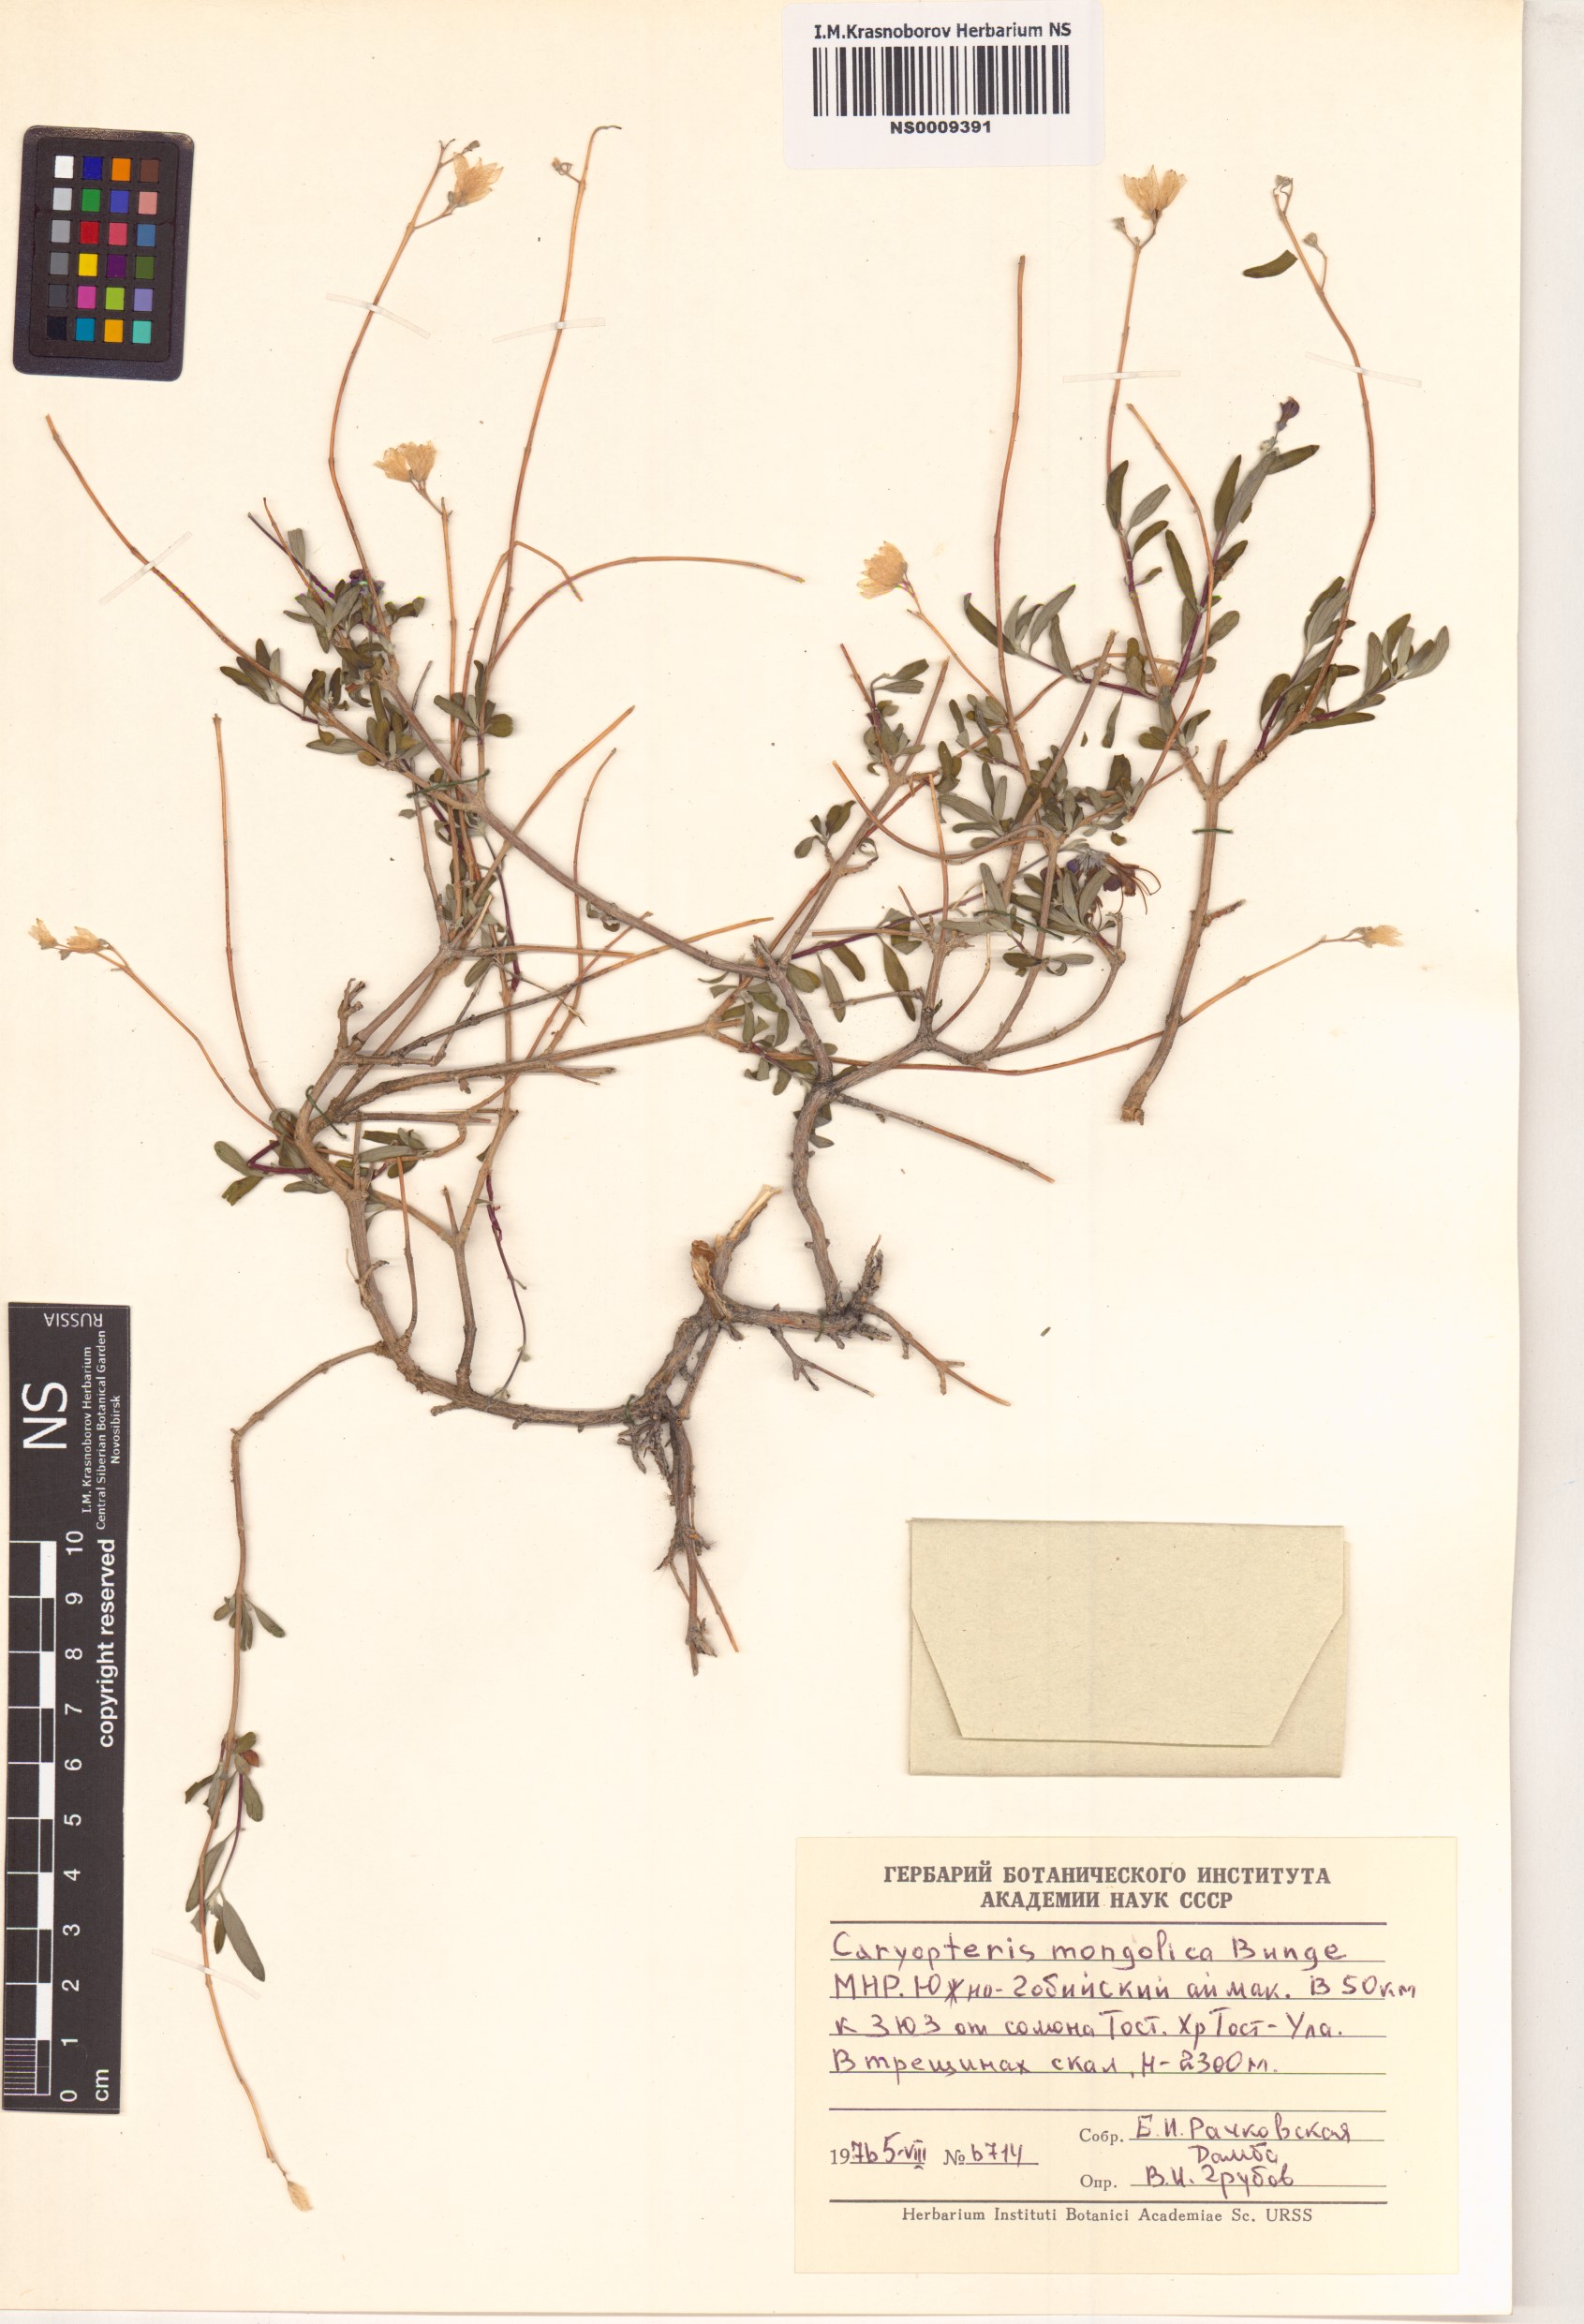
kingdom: Plantae
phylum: Tracheophyta
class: Magnoliopsida
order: Lamiales
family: Lamiaceae
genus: Caryopteris
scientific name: Caryopteris mongholica
